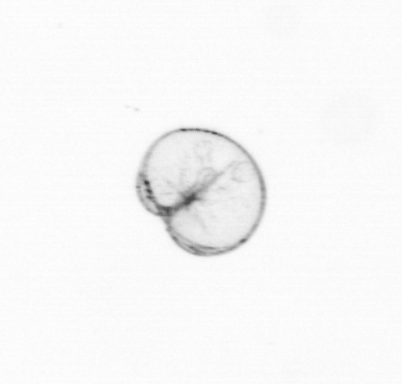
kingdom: Chromista
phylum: Myzozoa
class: Dinophyceae
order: Noctilucales
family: Noctilucaceae
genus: Noctiluca
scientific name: Noctiluca scintillans
